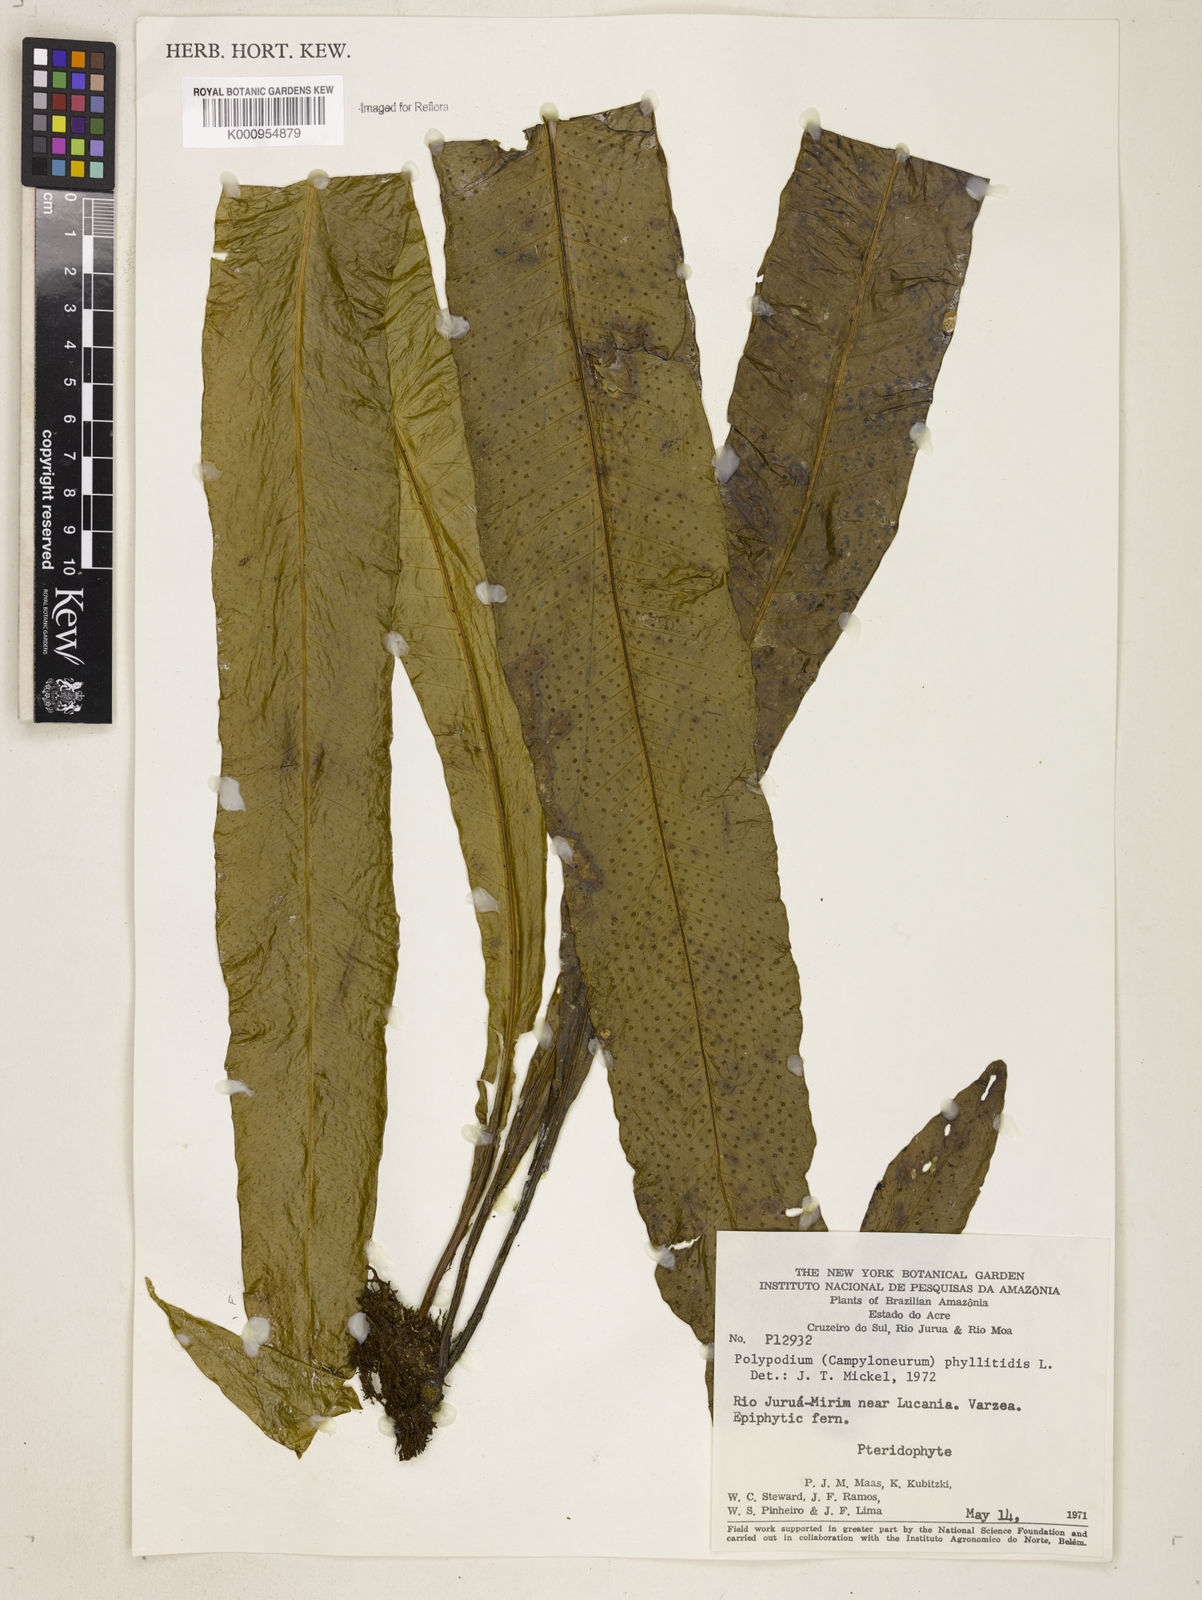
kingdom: Plantae
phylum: Tracheophyta
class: Polypodiopsida
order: Polypodiales
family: Polypodiaceae
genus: Campyloneurum
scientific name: Campyloneurum phyllitidis
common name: Cow-tongue fern
